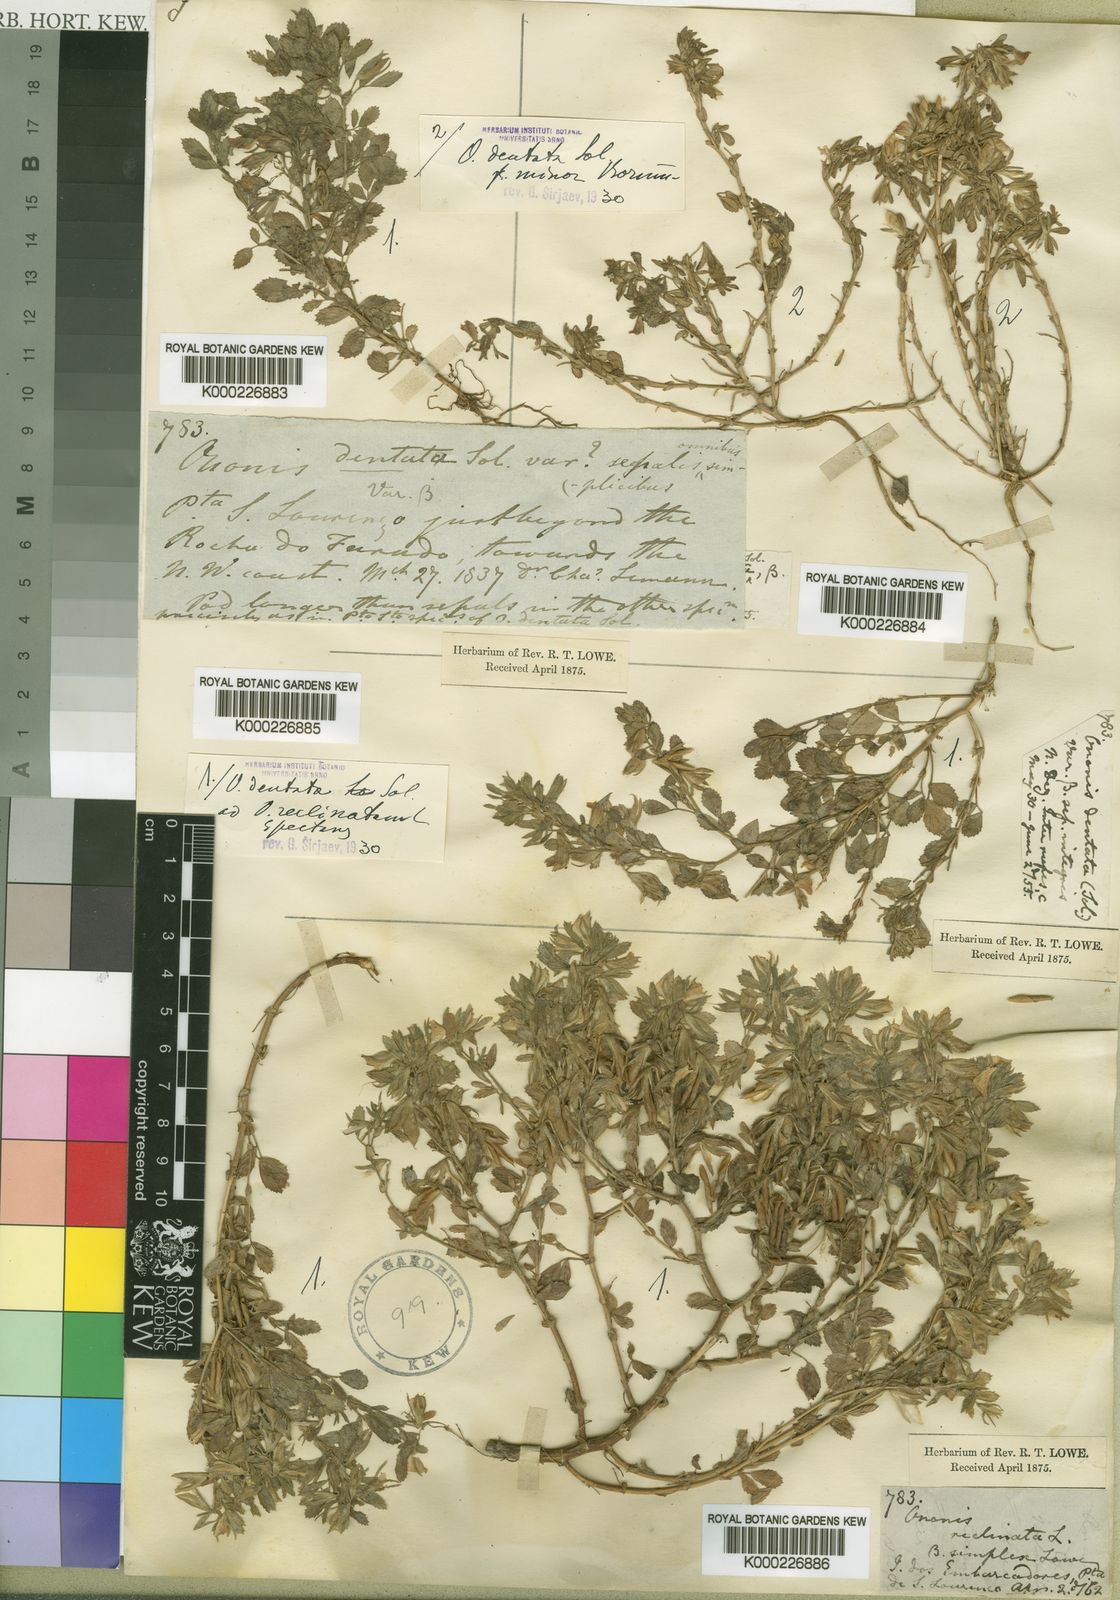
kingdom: Plantae
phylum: Tracheophyta
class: Magnoliopsida
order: Fabales
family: Fabaceae
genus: Ononis
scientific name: Ononis
